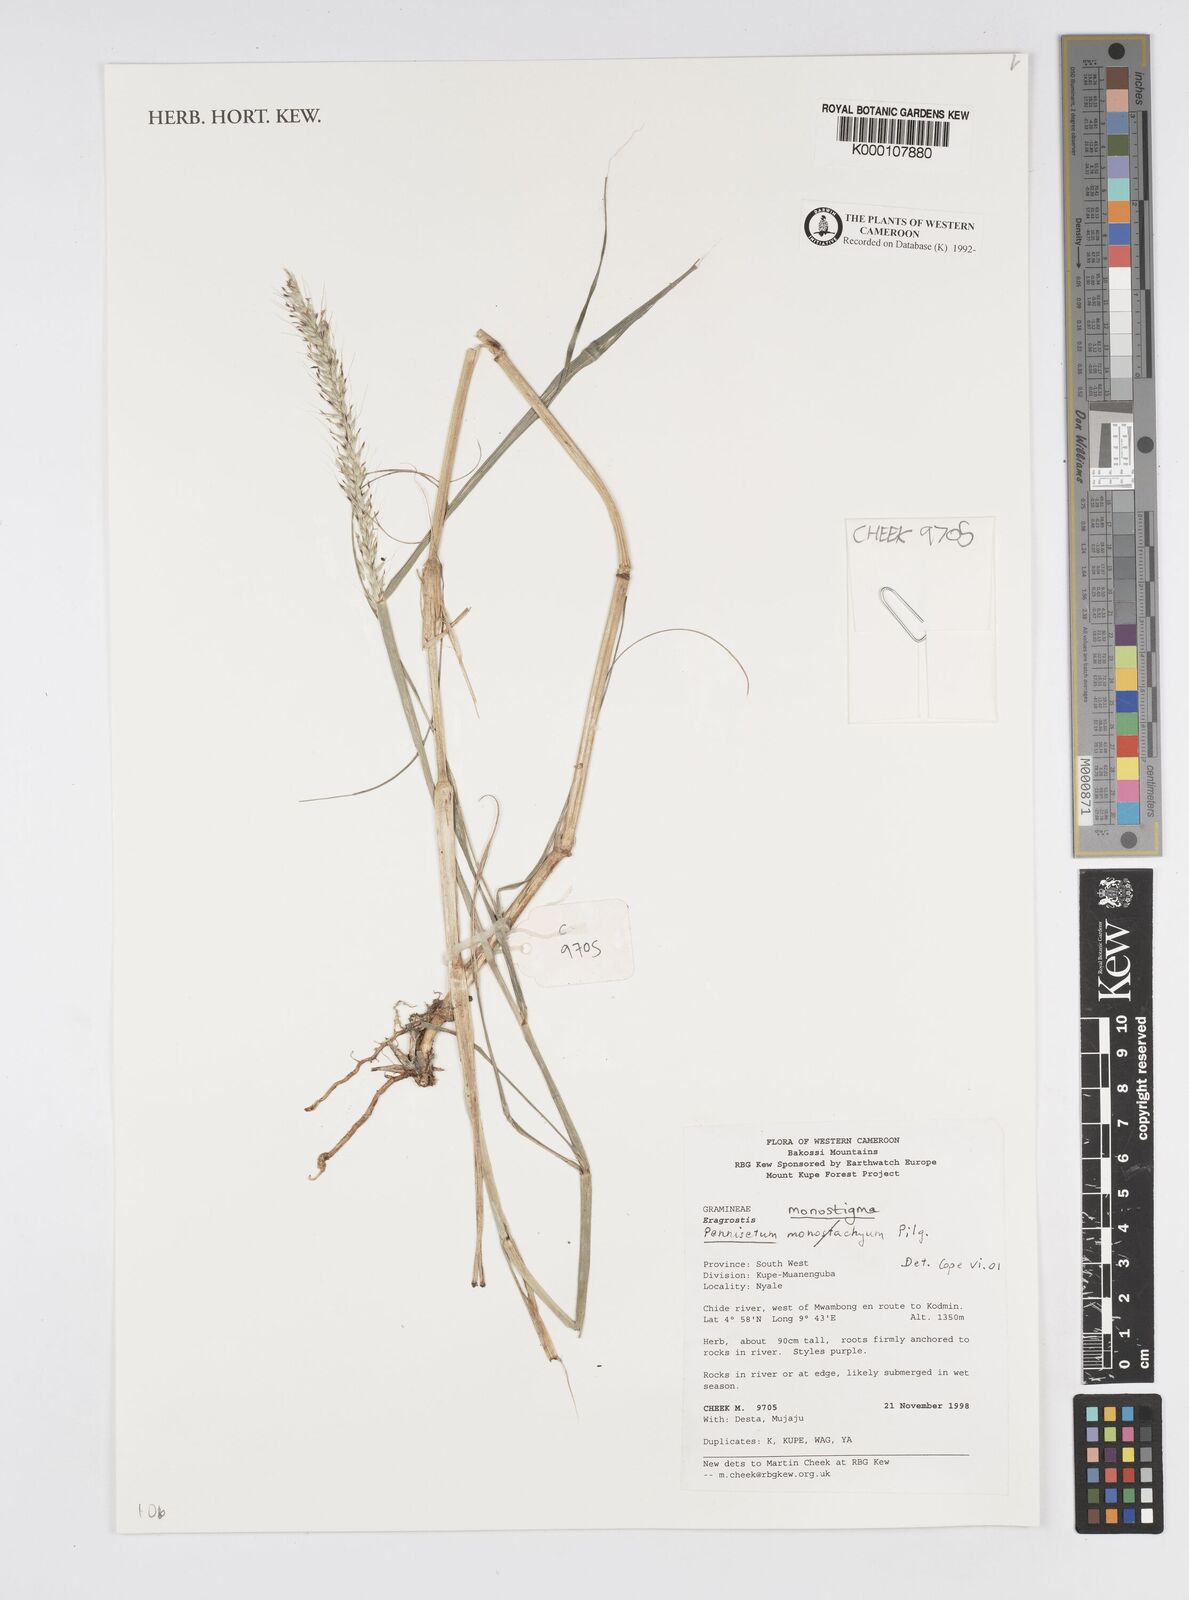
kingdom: Plantae
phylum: Tracheophyta
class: Liliopsida
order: Poales
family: Poaceae
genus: Cenchrus
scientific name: Cenchrus monostigma
